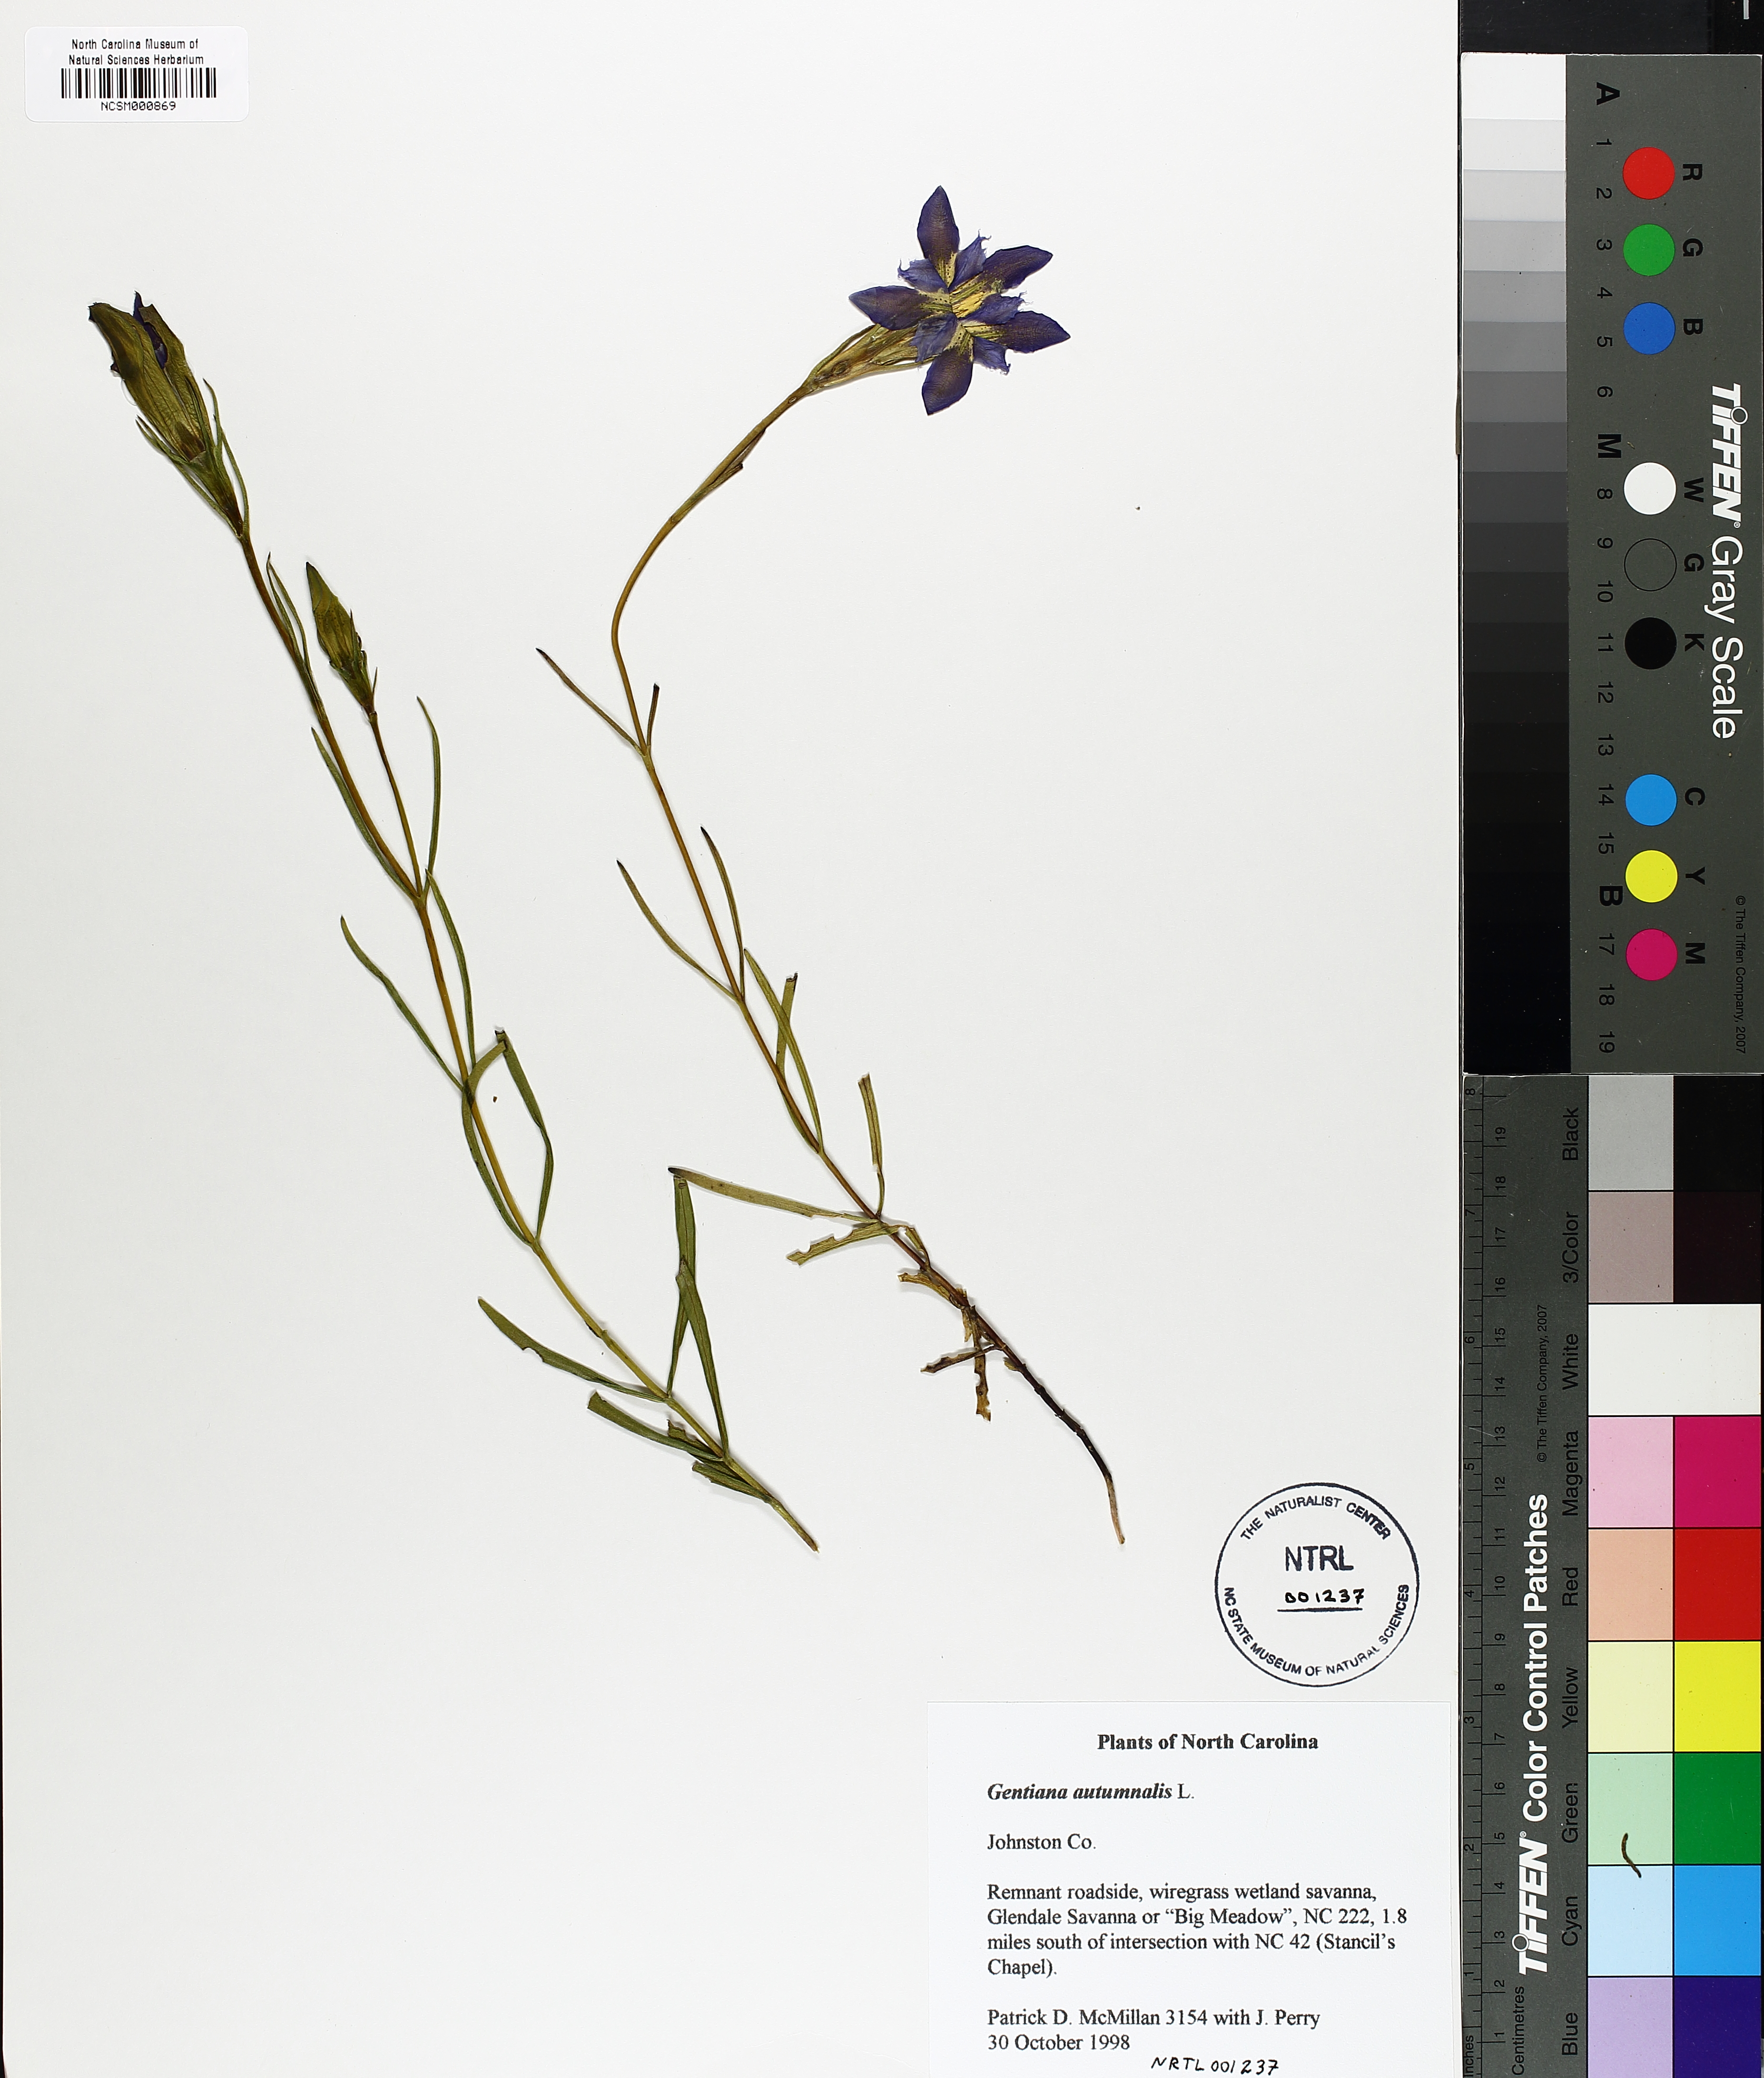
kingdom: Plantae
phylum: Tracheophyta
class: Magnoliopsida
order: Gentianales
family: Gentianaceae
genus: Gentiana
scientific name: Gentiana autumnalis
